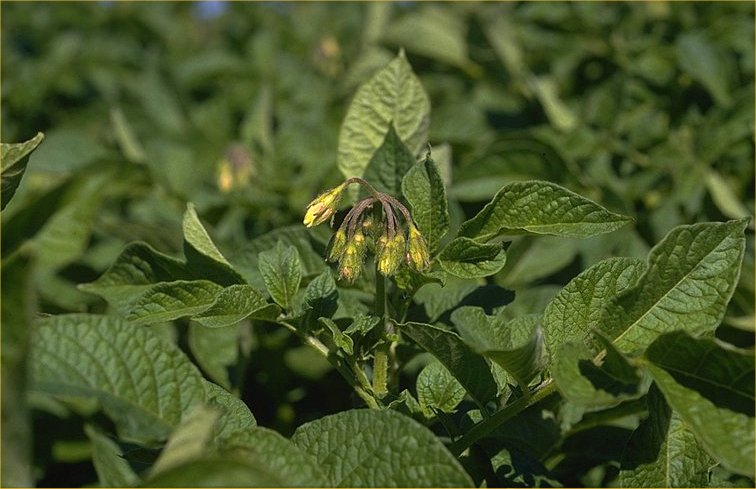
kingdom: Plantae
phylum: Tracheophyta
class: Magnoliopsida
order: Solanales
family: Solanaceae
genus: Solanum
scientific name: Solanum tuberosum
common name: Potato
